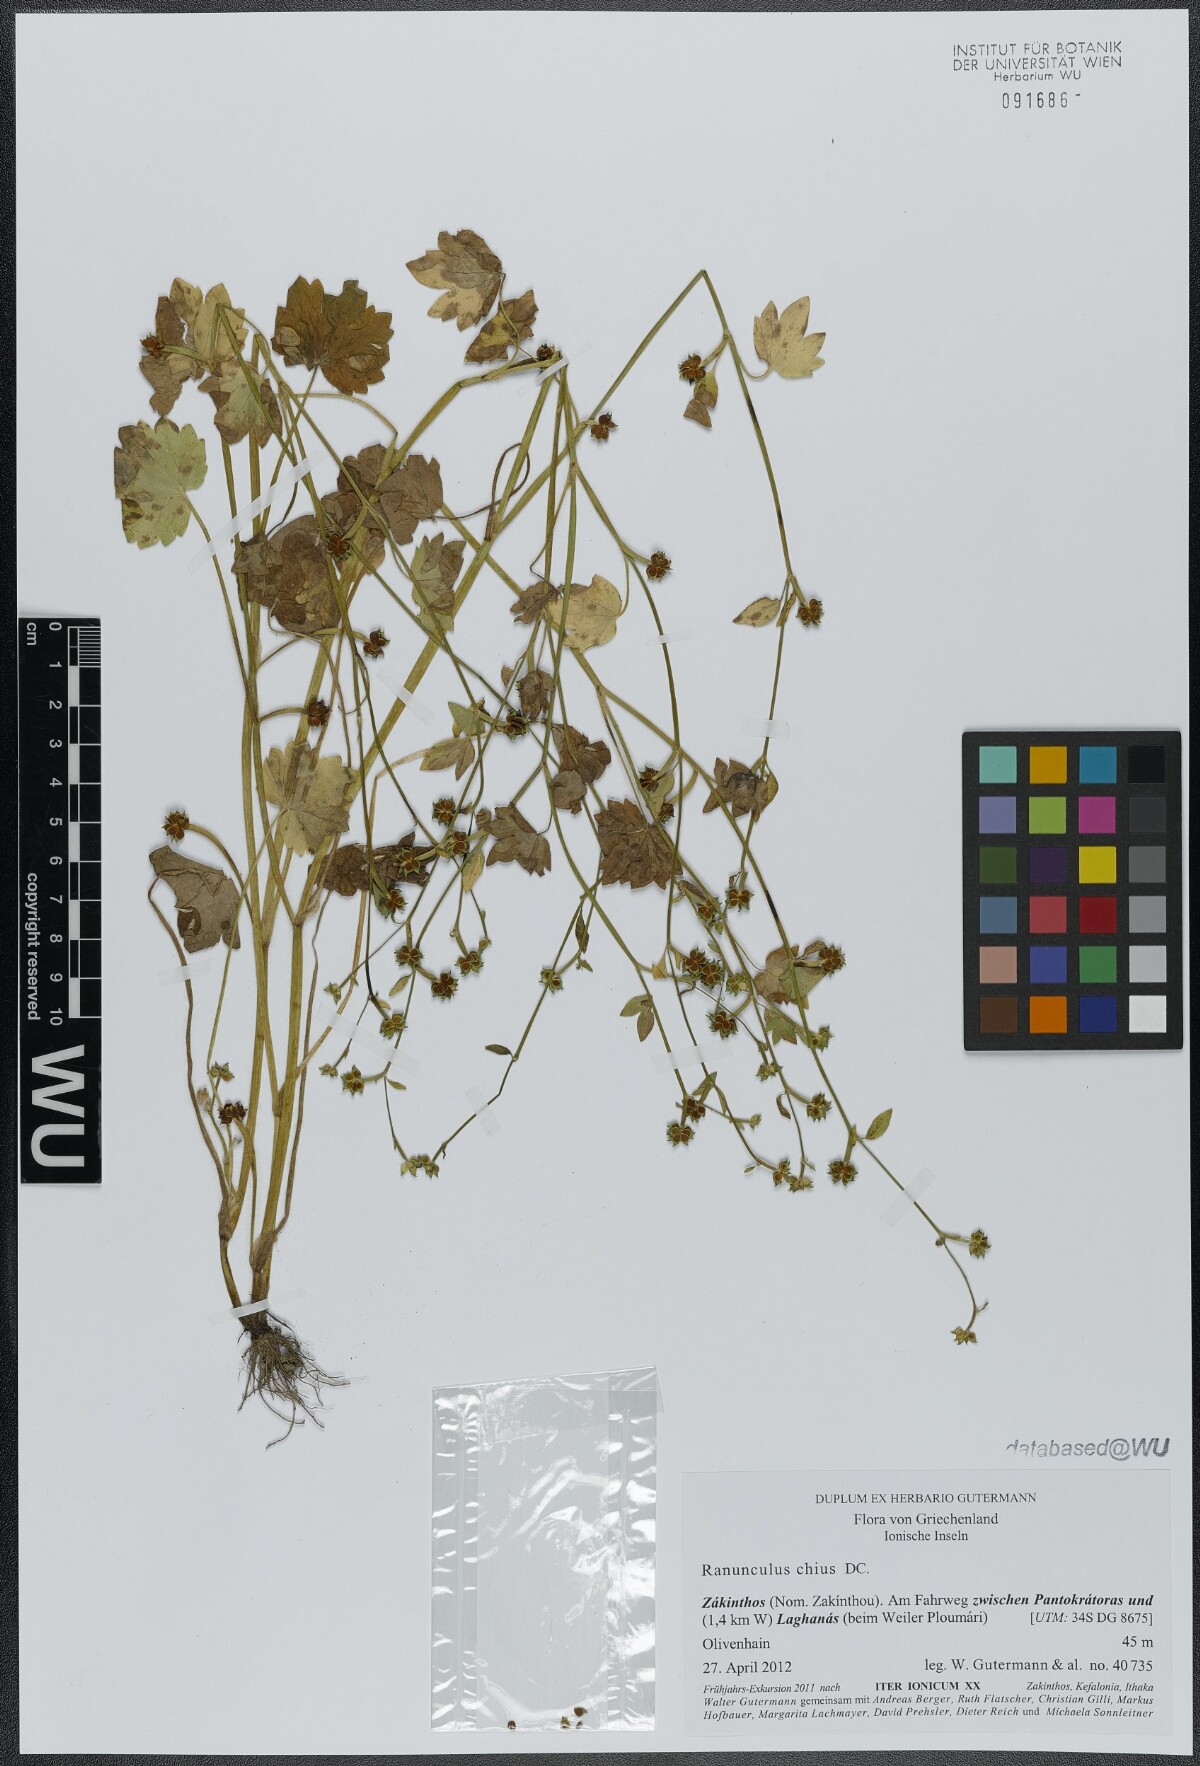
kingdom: Plantae
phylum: Tracheophyta
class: Magnoliopsida
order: Ranunculales
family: Ranunculaceae
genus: Ranunculus
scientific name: Ranunculus chius
